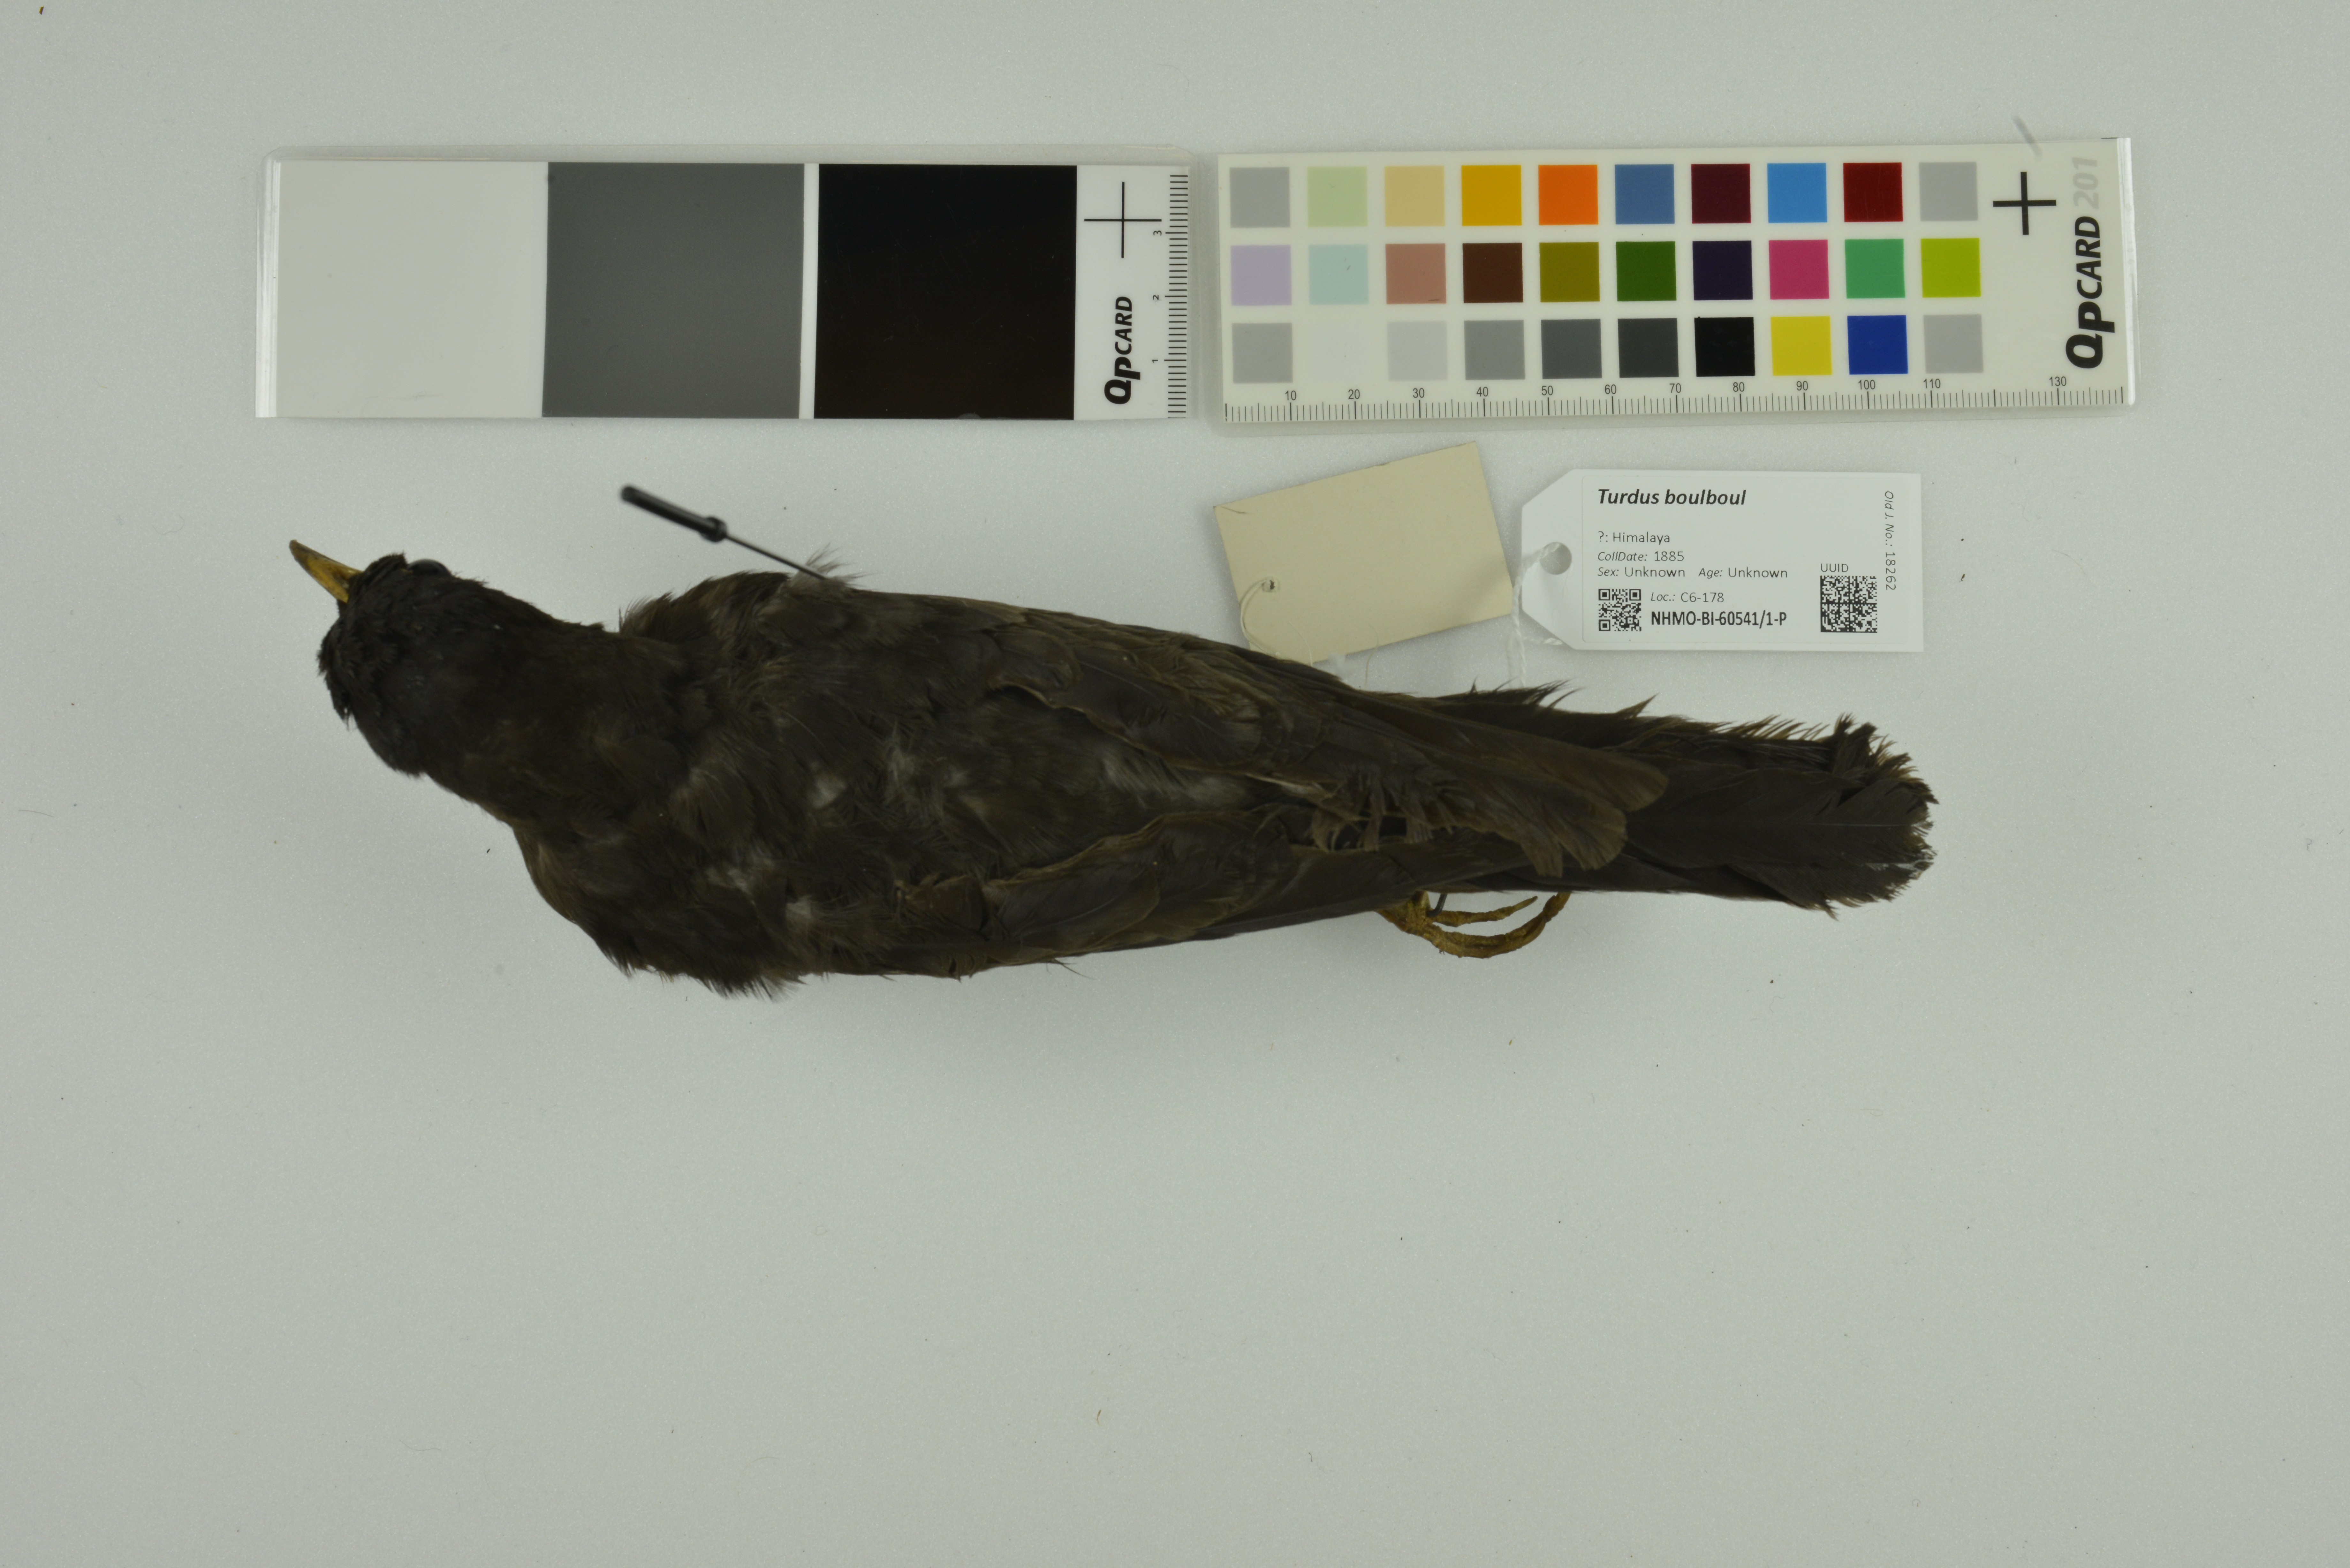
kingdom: Animalia
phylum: Chordata
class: Aves
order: Passeriformes
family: Turdidae
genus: Turdus
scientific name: Turdus boulboul
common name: Grey-winged blackbird
